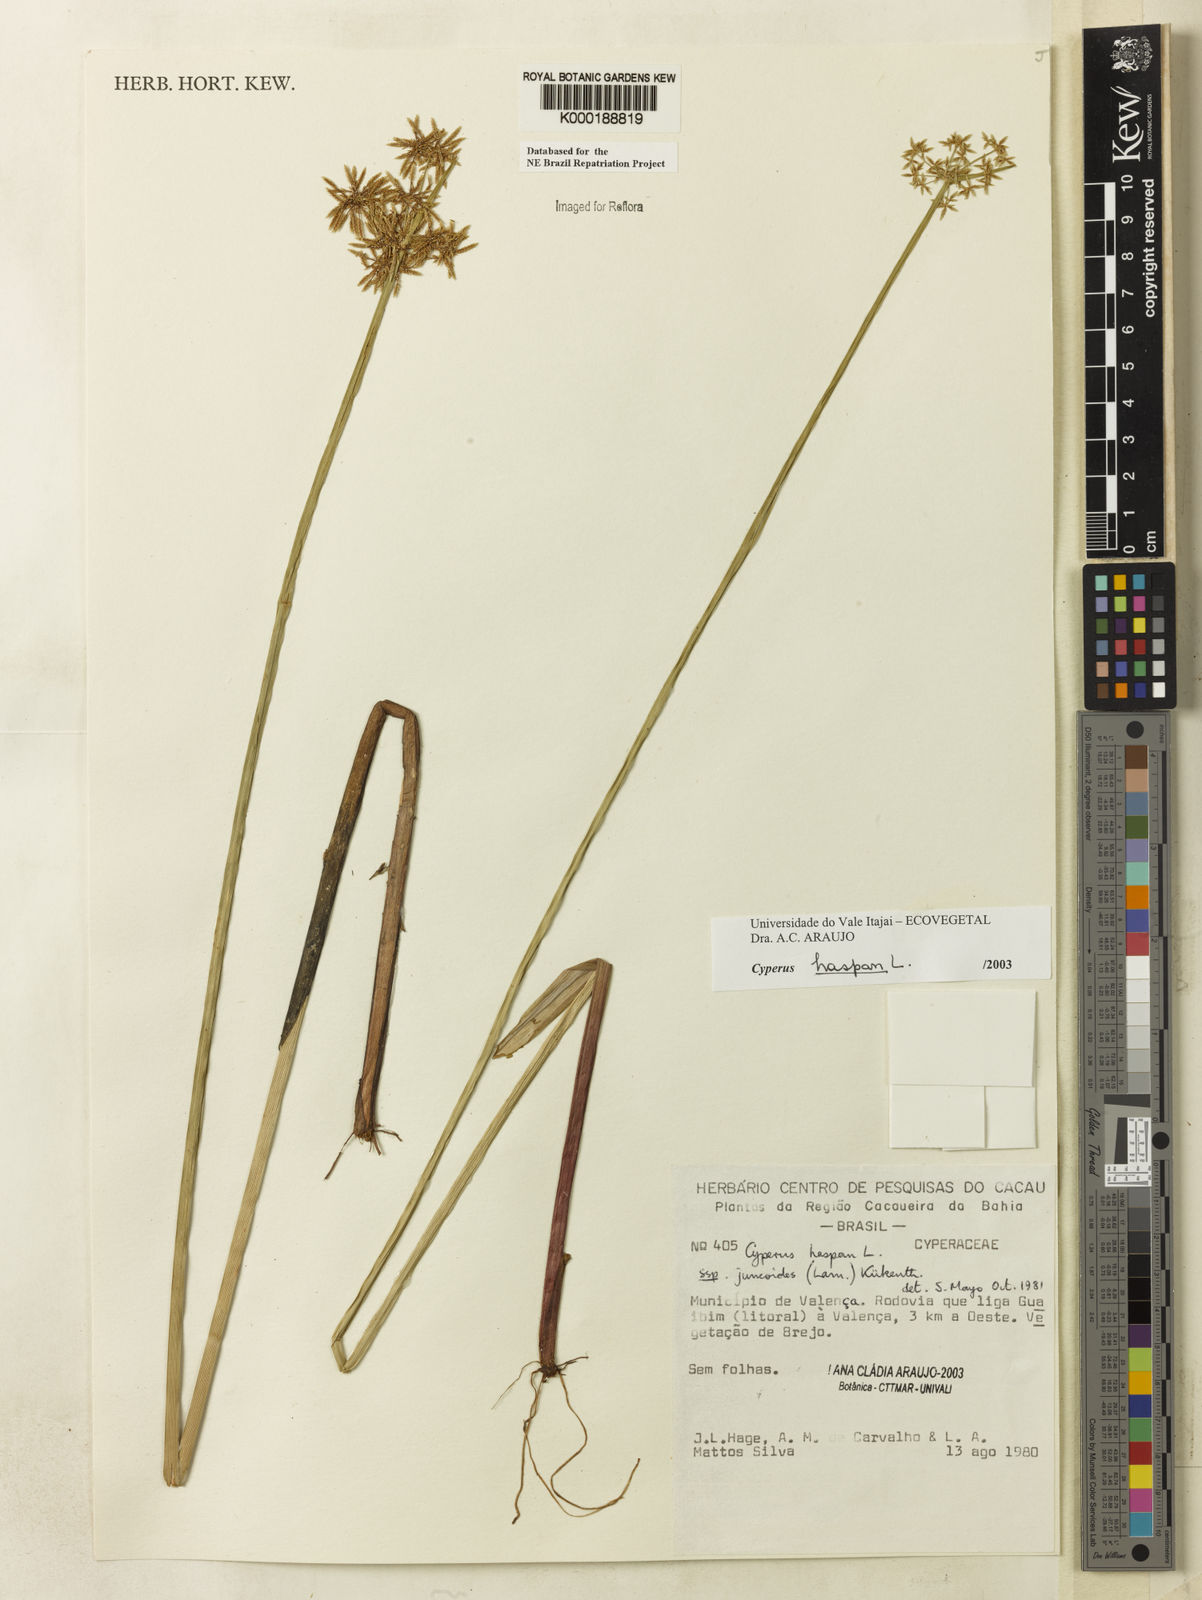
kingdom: Plantae
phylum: Tracheophyta
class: Liliopsida
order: Poales
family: Cyperaceae
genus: Cyperus
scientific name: Cyperus haspan
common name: Haspan flatsedge
